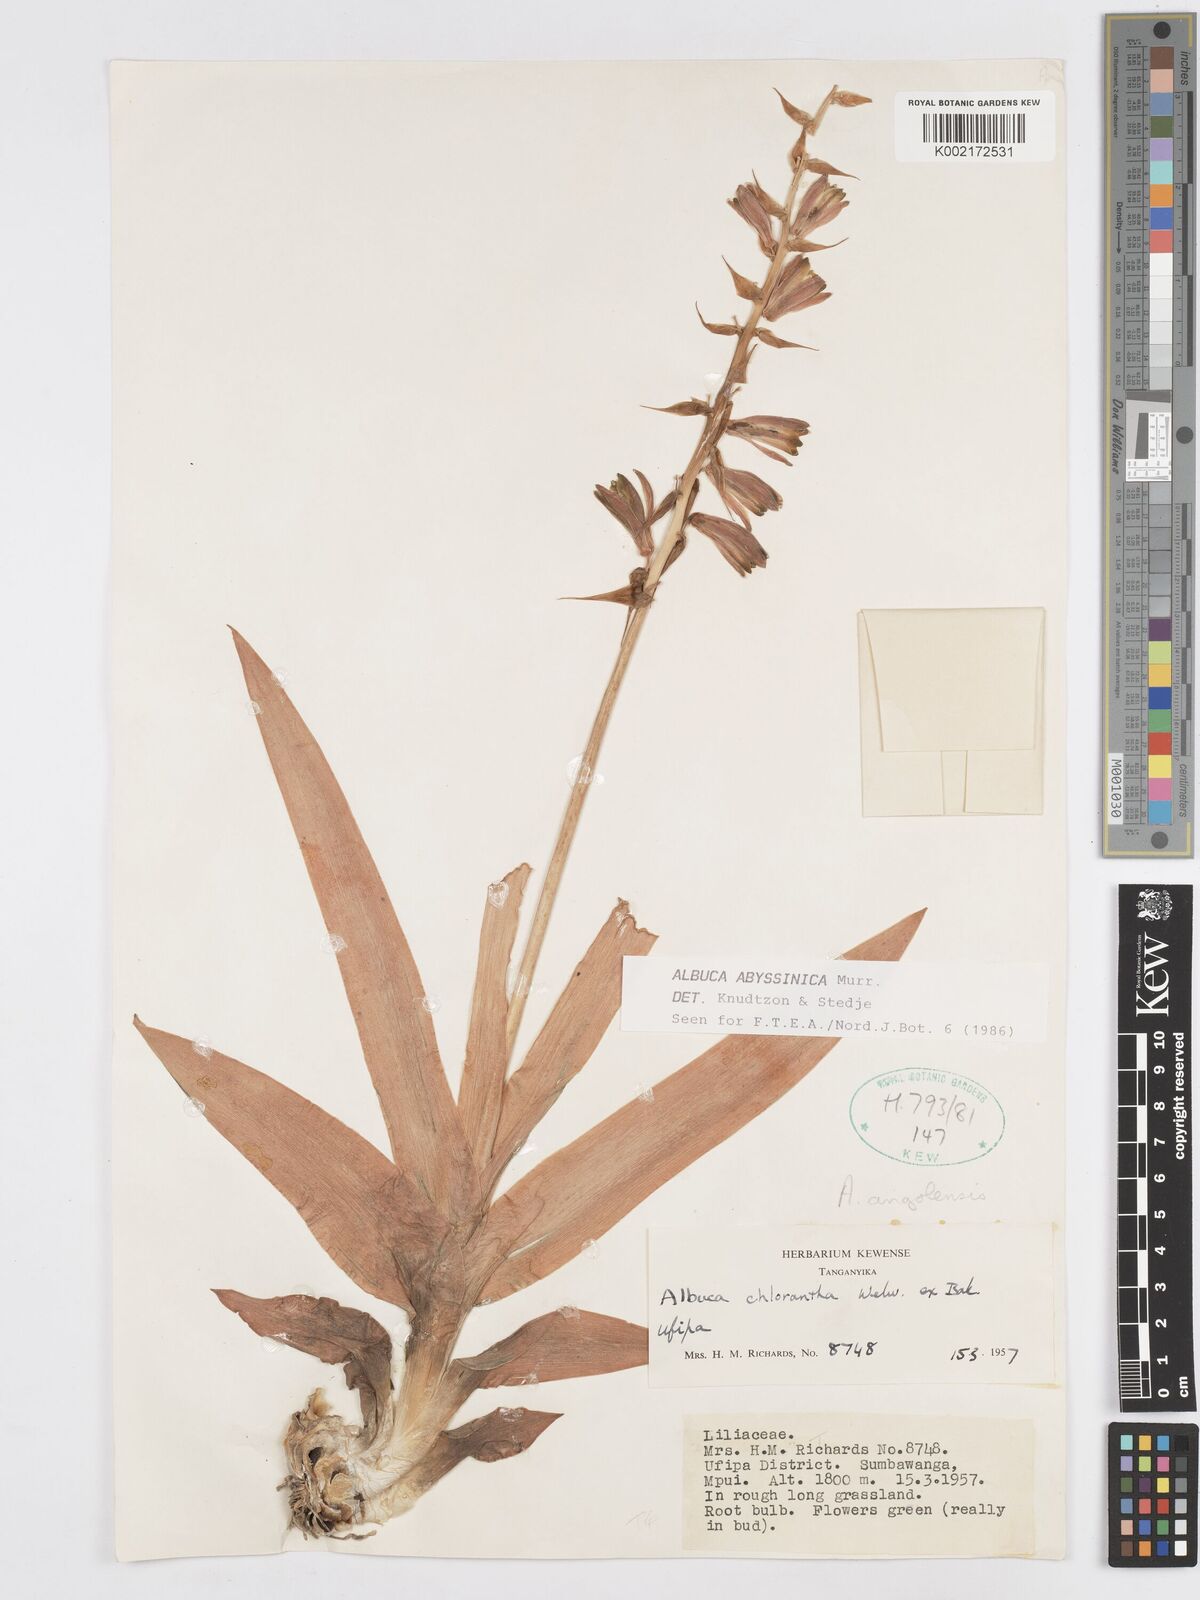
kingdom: Plantae
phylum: Tracheophyta
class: Liliopsida
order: Asparagales
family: Asparagaceae
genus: Albuca
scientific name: Albuca abyssinica
